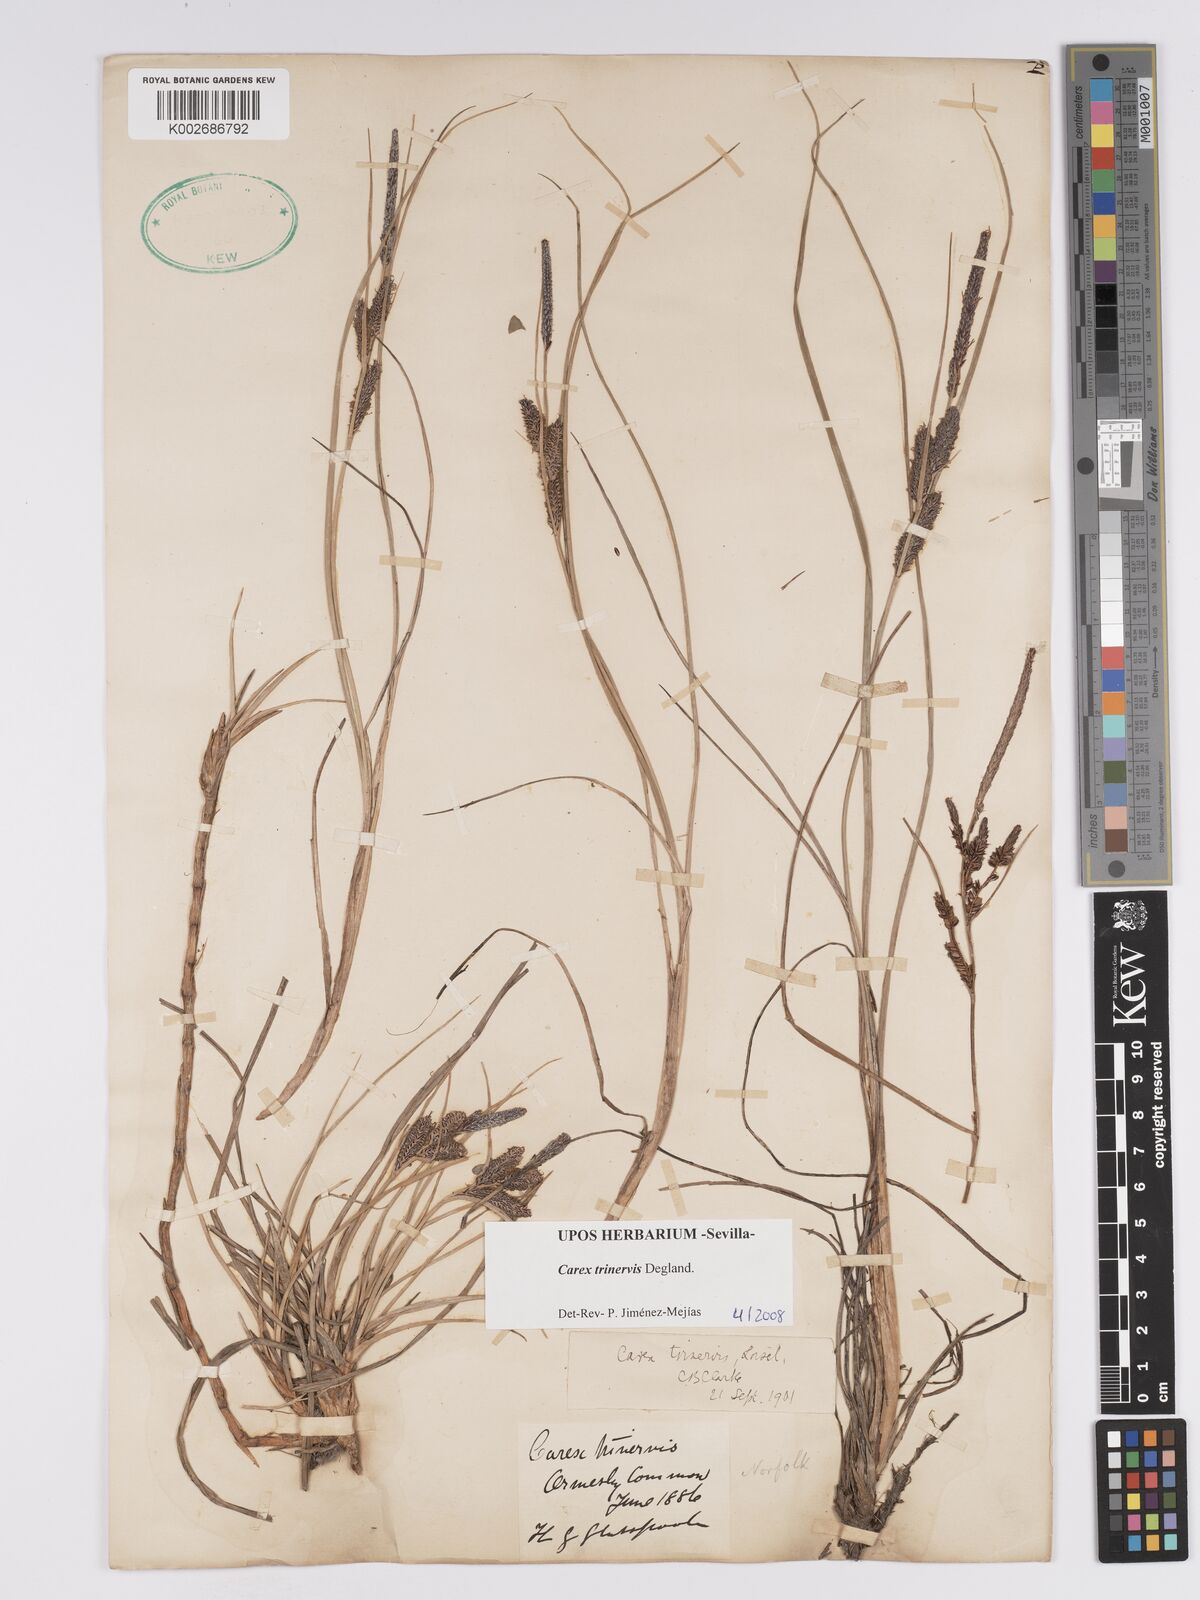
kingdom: Plantae
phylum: Tracheophyta
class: Liliopsida
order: Poales
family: Cyperaceae
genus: Carex
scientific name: Carex trinervis
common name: Three-nerved sedge
